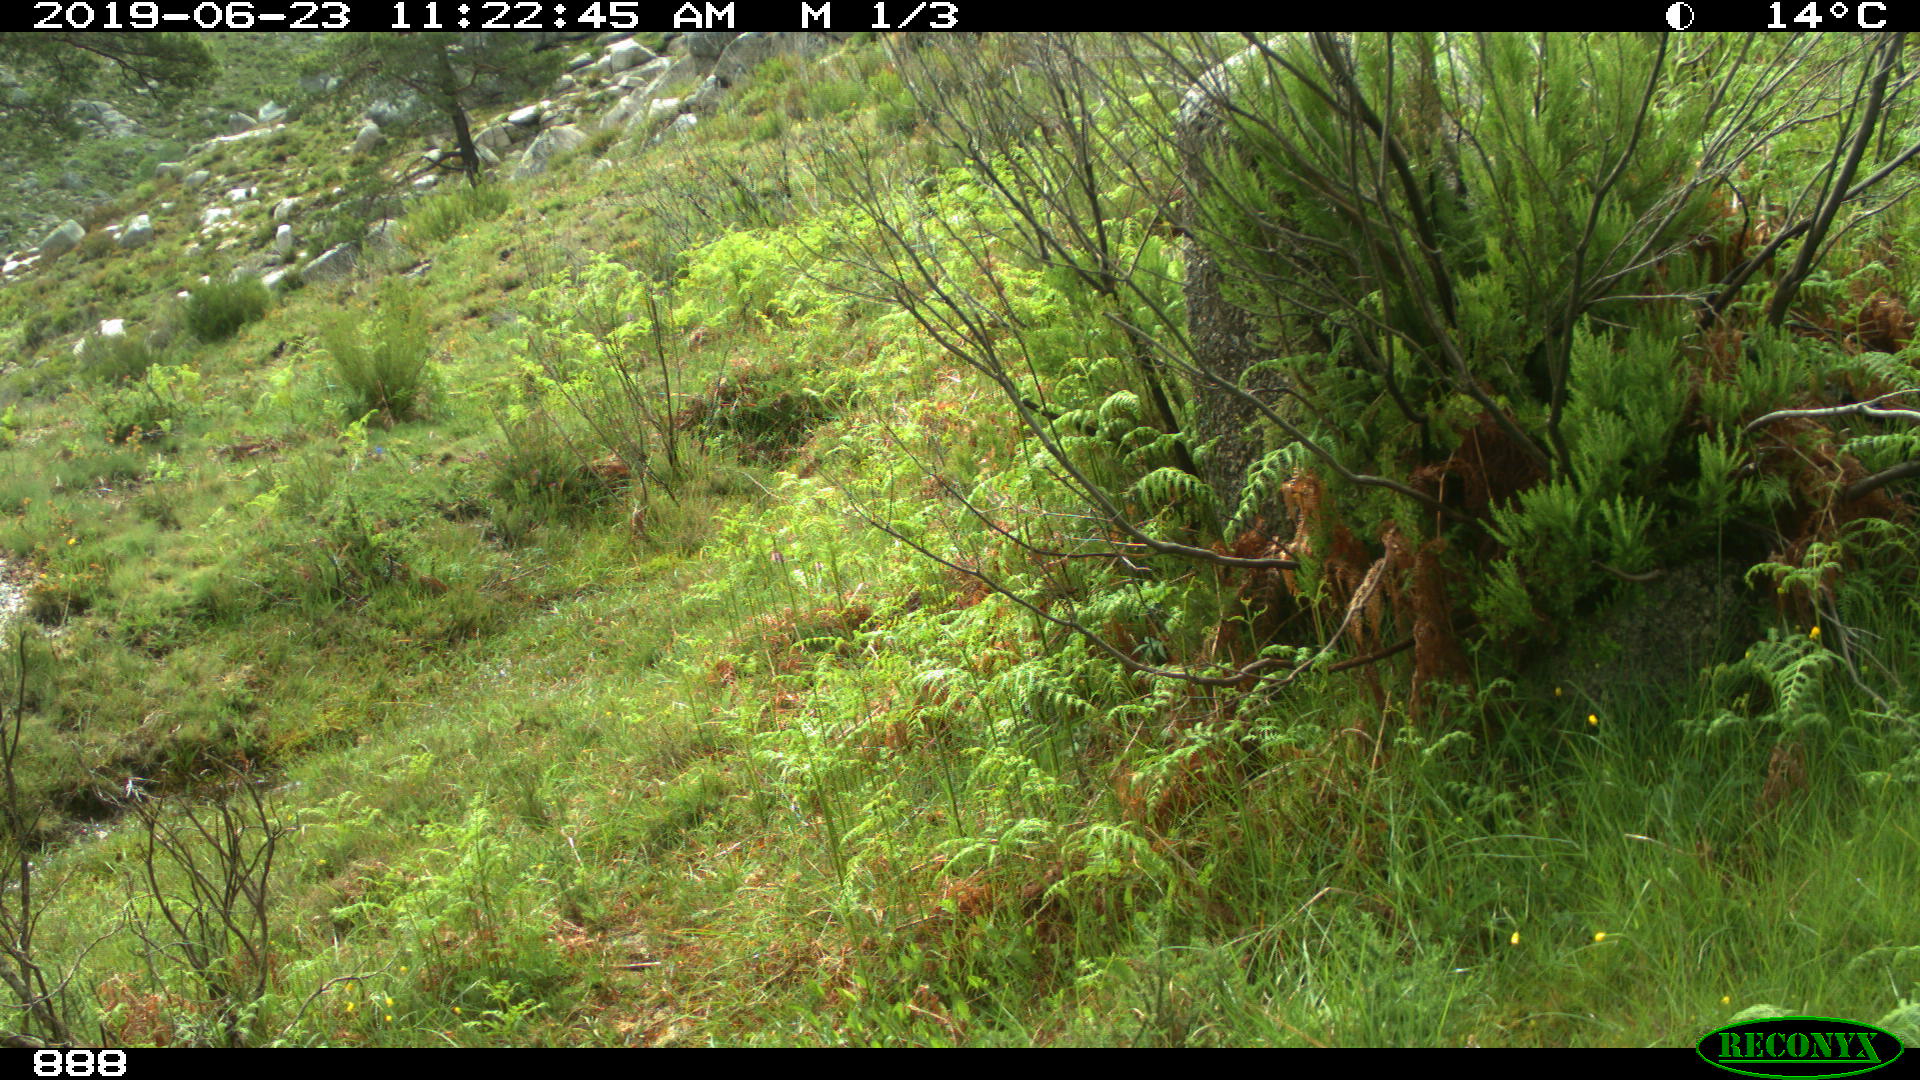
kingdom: Animalia
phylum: Chordata
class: Mammalia
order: Perissodactyla
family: Equidae
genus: Equus
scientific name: Equus caballus
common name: Horse
